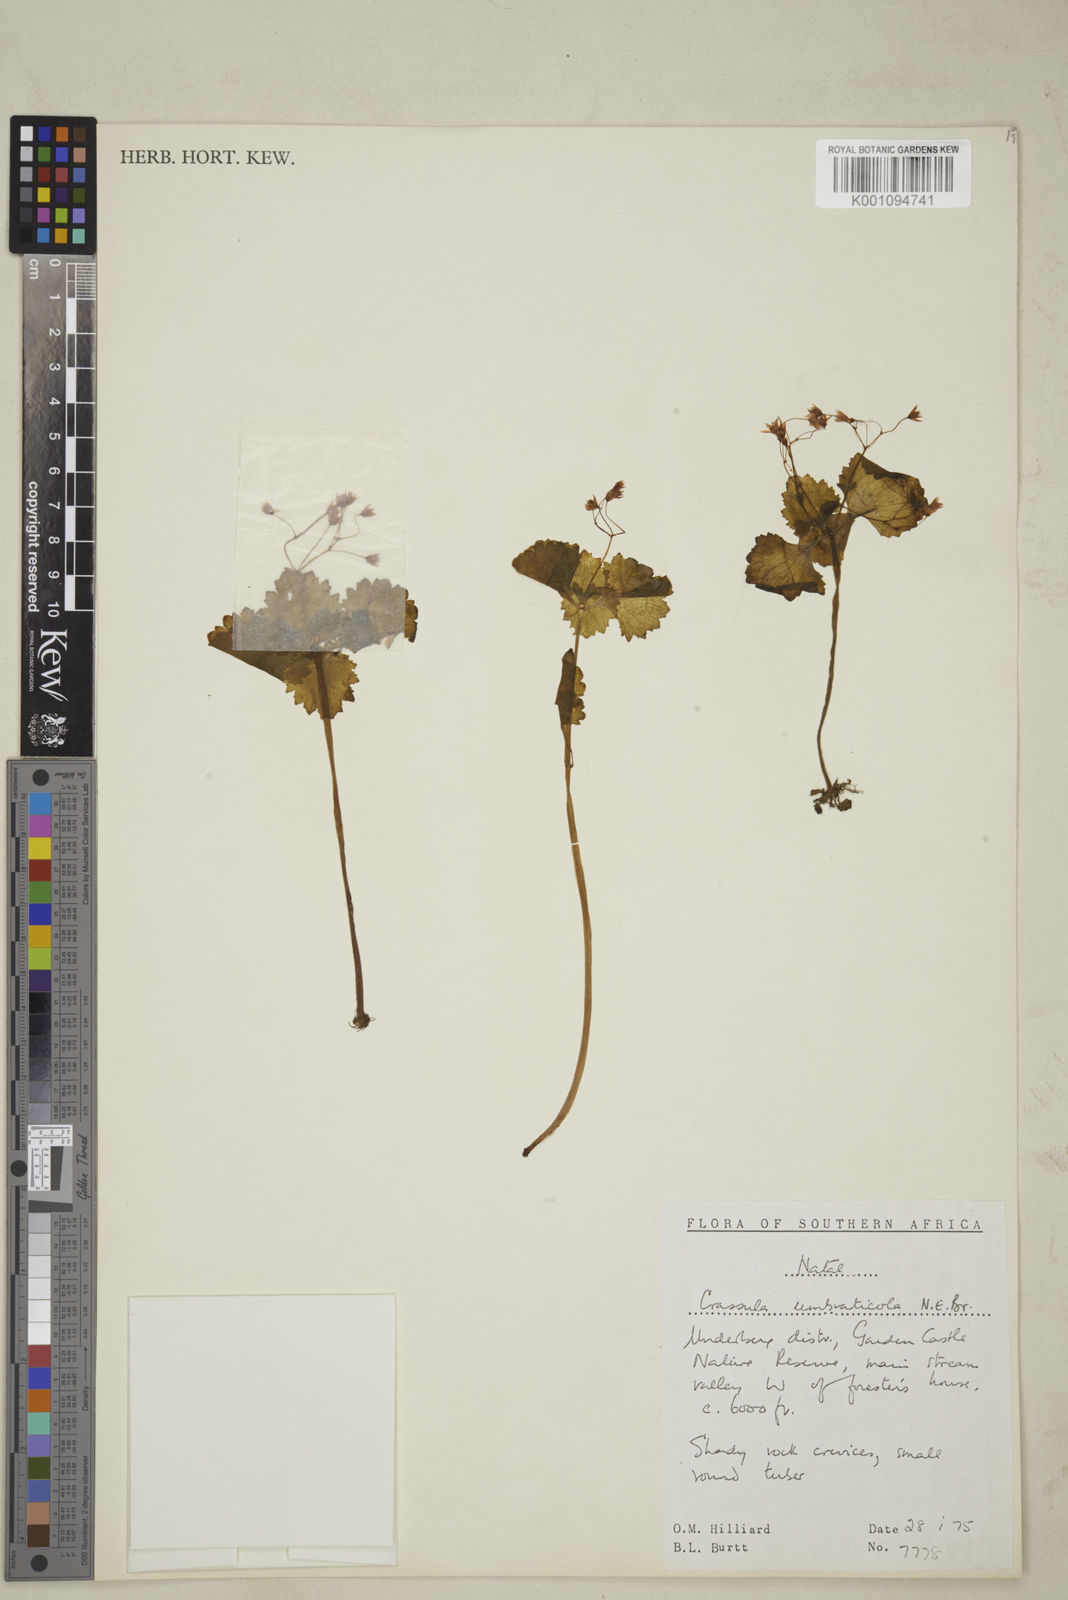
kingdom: Plantae
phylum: Tracheophyta
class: Magnoliopsida
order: Saxifragales
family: Crassulaceae
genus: Crassula
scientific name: Crassula umbraticola
